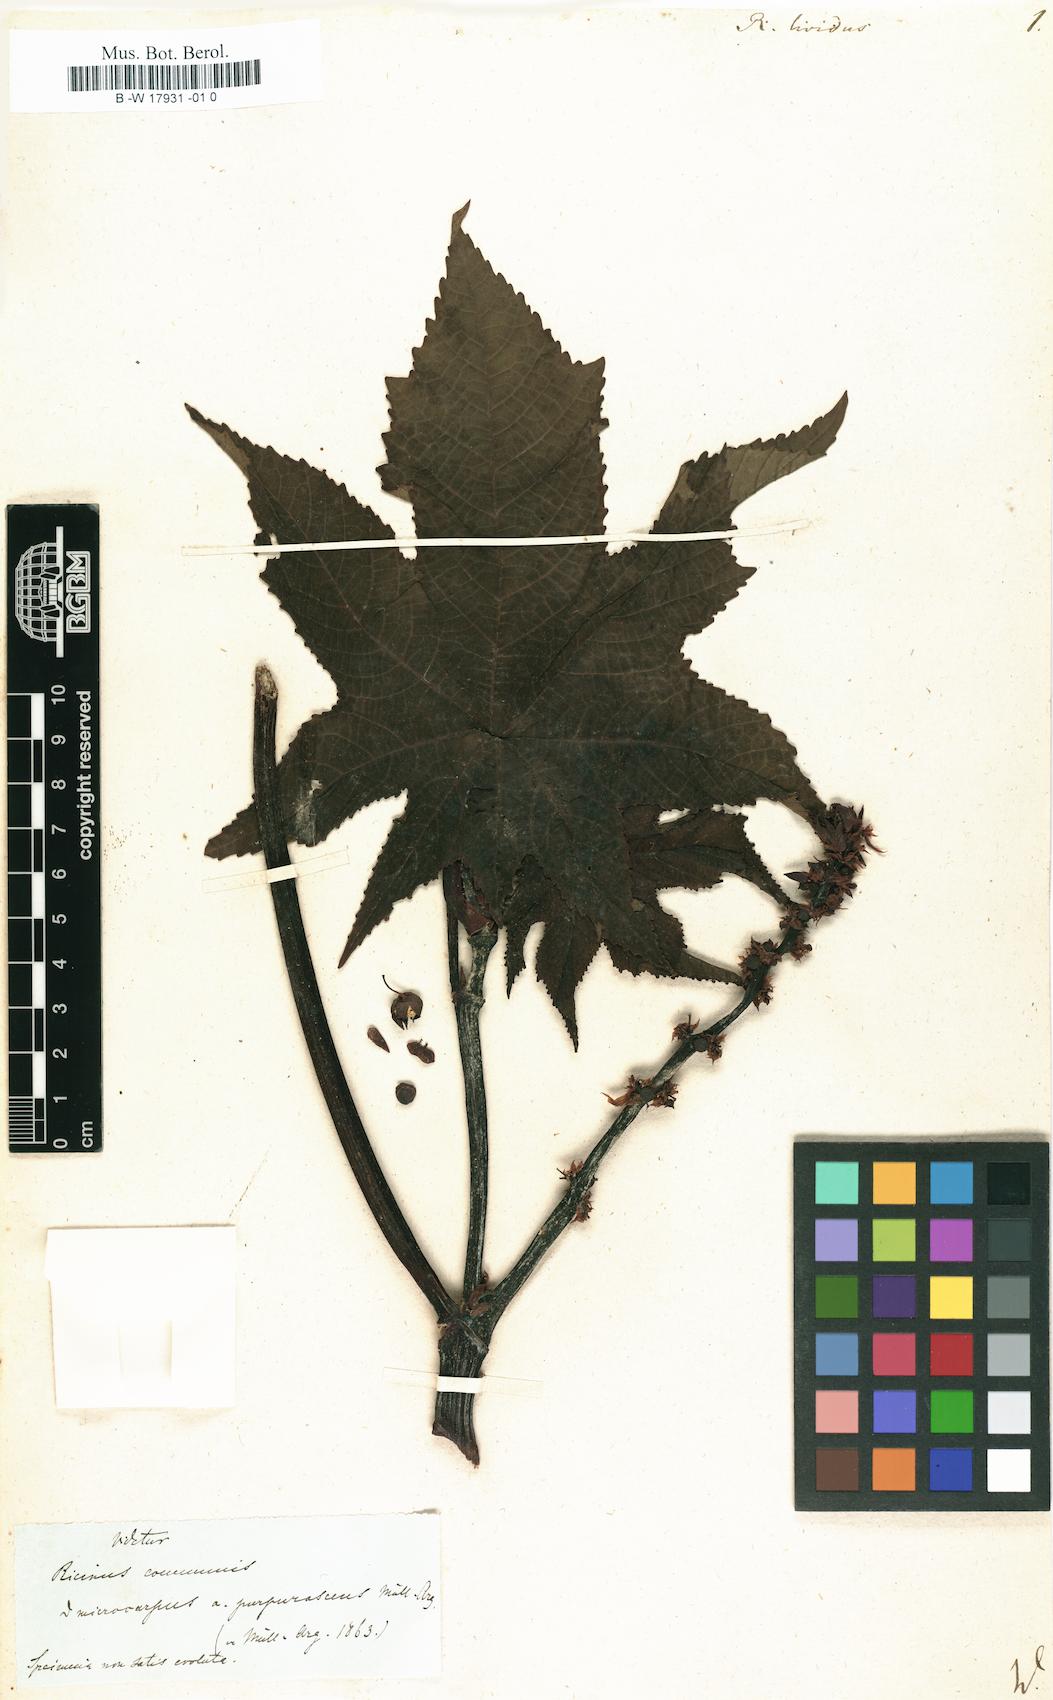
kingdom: Plantae
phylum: Tracheophyta
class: Magnoliopsida
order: Malpighiales
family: Euphorbiaceae
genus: Ricinus
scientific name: Ricinus communis
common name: Castor-oil-plant
